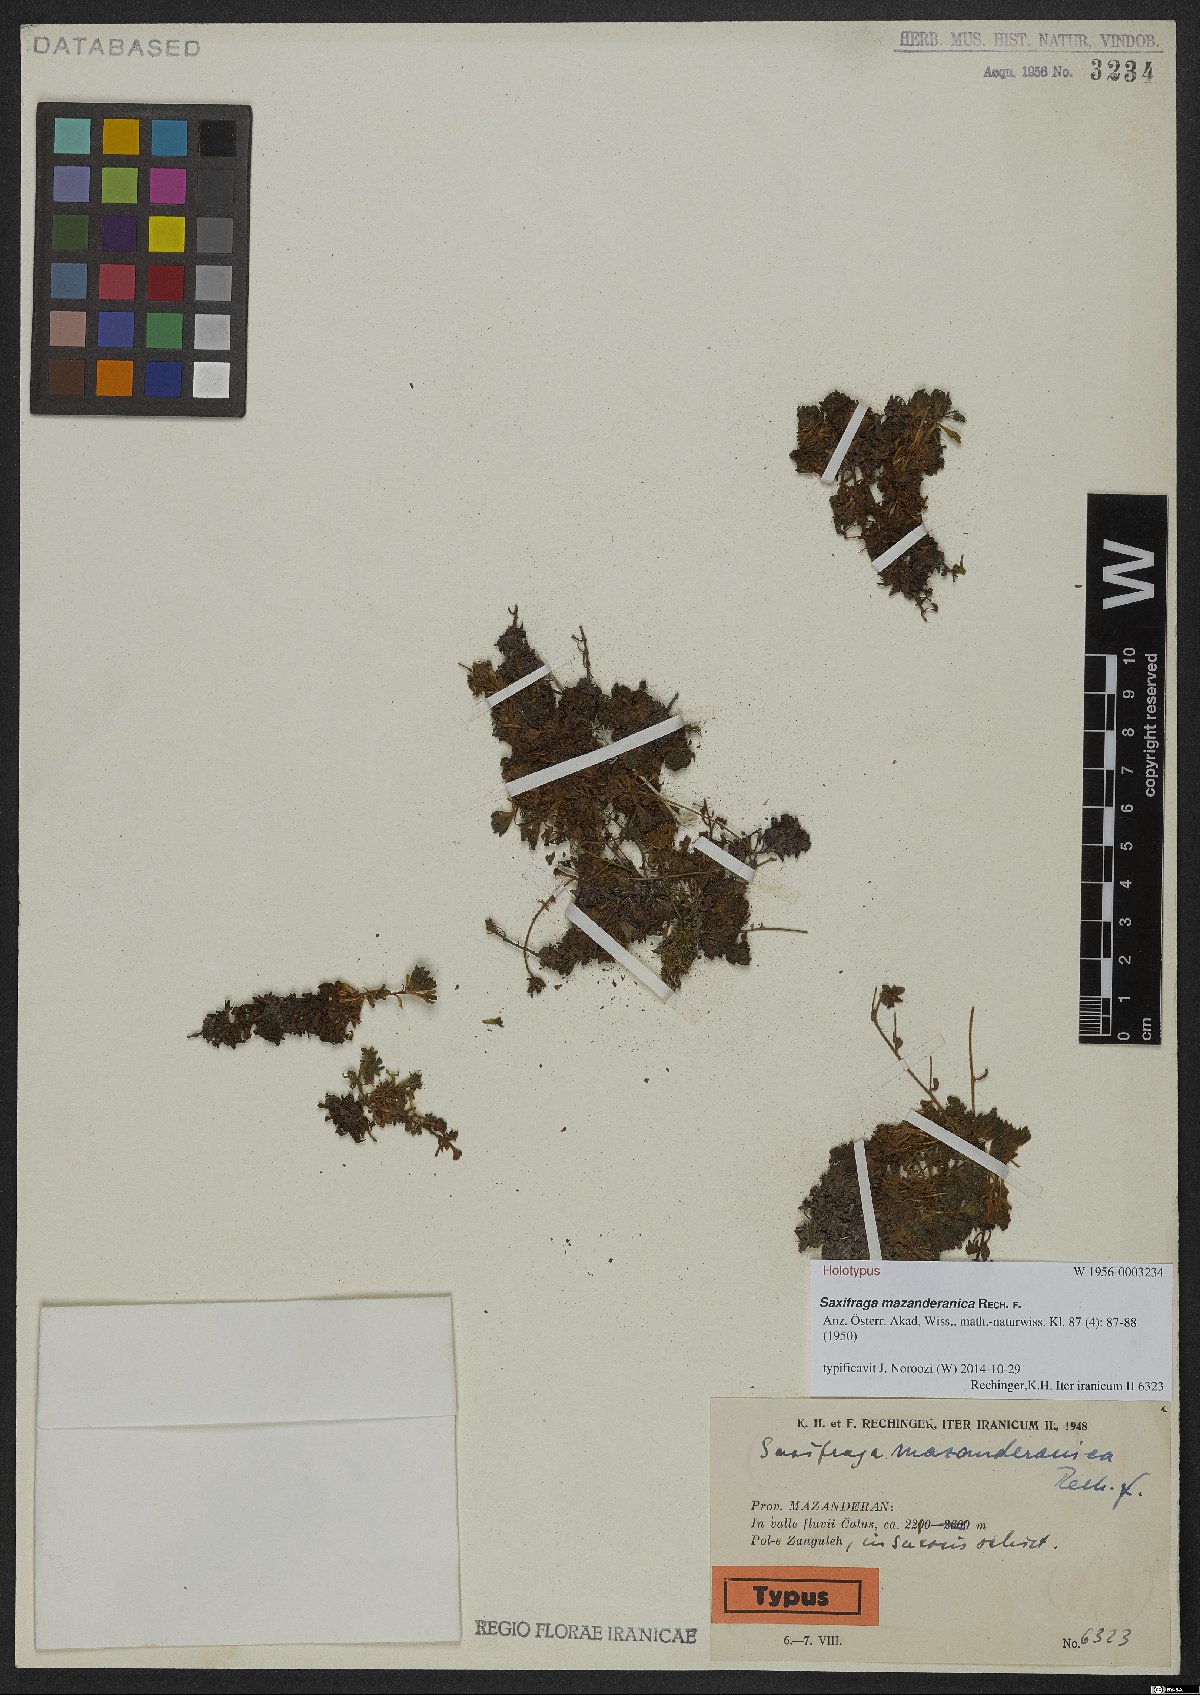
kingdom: Plantae
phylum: Tracheophyta
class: Magnoliopsida
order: Saxifragales
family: Saxifragaceae
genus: Saxifraga
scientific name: Saxifraga mazanderanica
